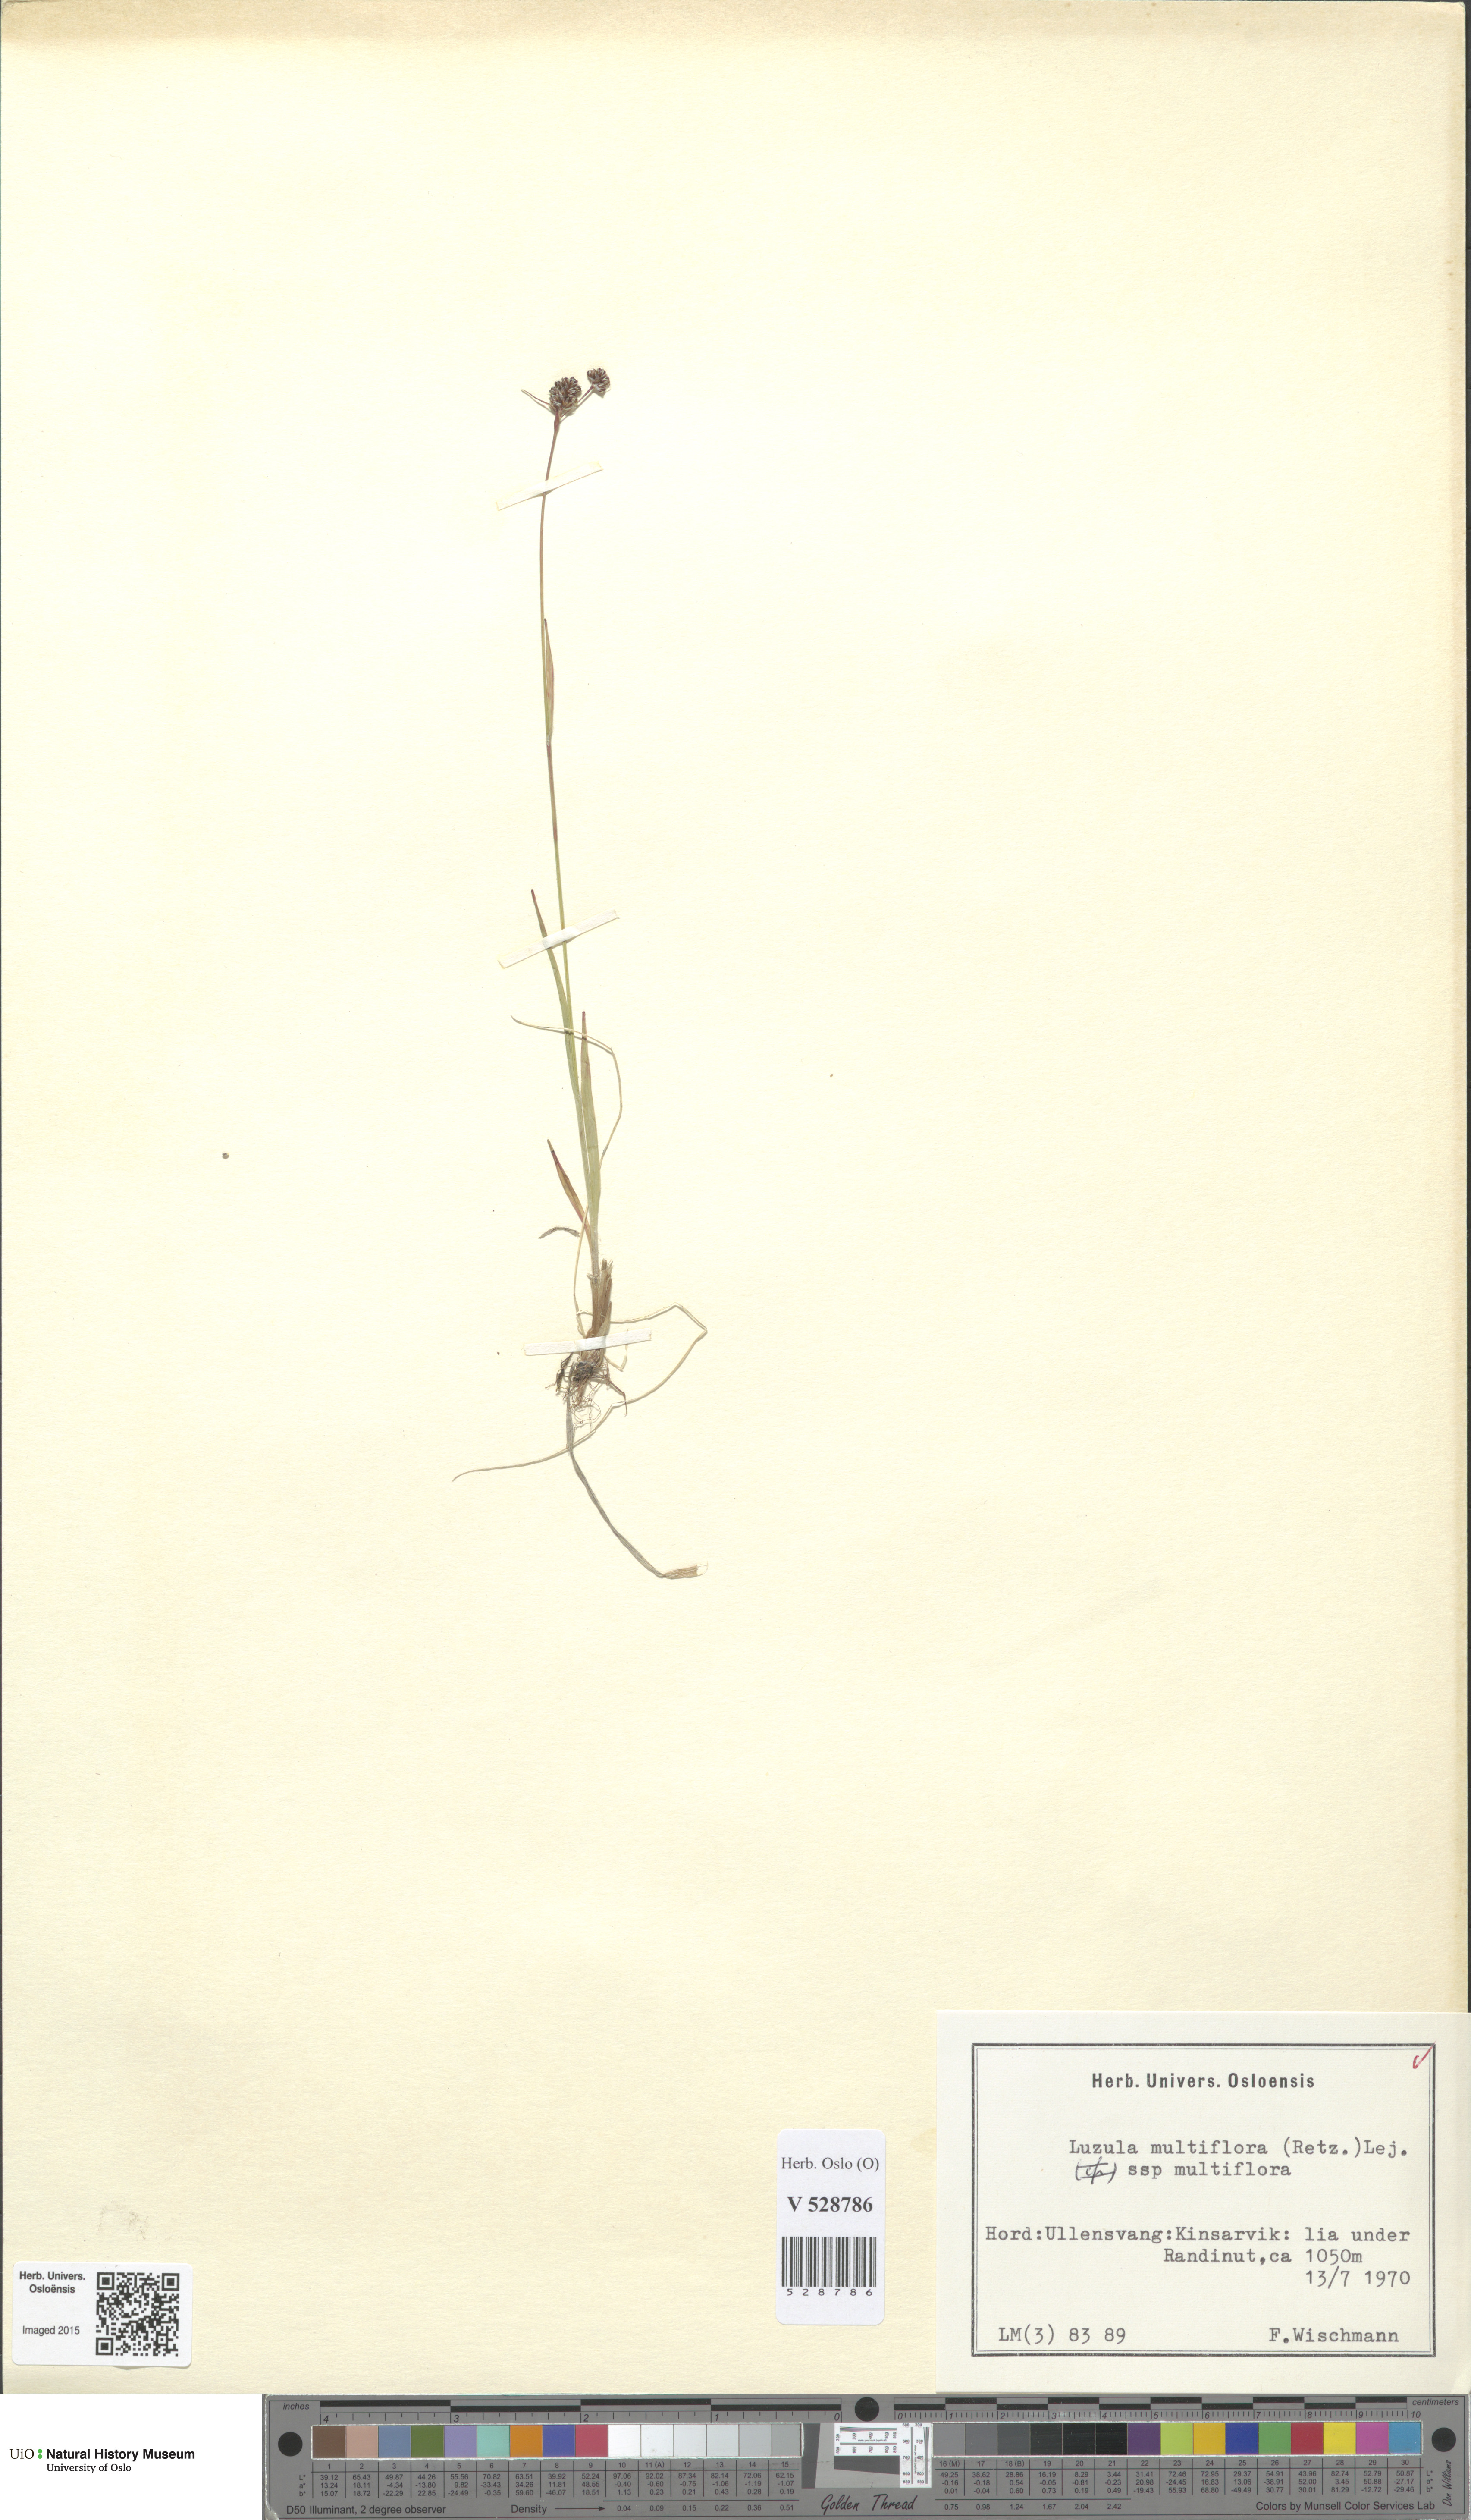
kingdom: Plantae
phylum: Tracheophyta
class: Liliopsida
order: Poales
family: Juncaceae
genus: Luzula
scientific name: Luzula multiflora
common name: Heath wood-rush
